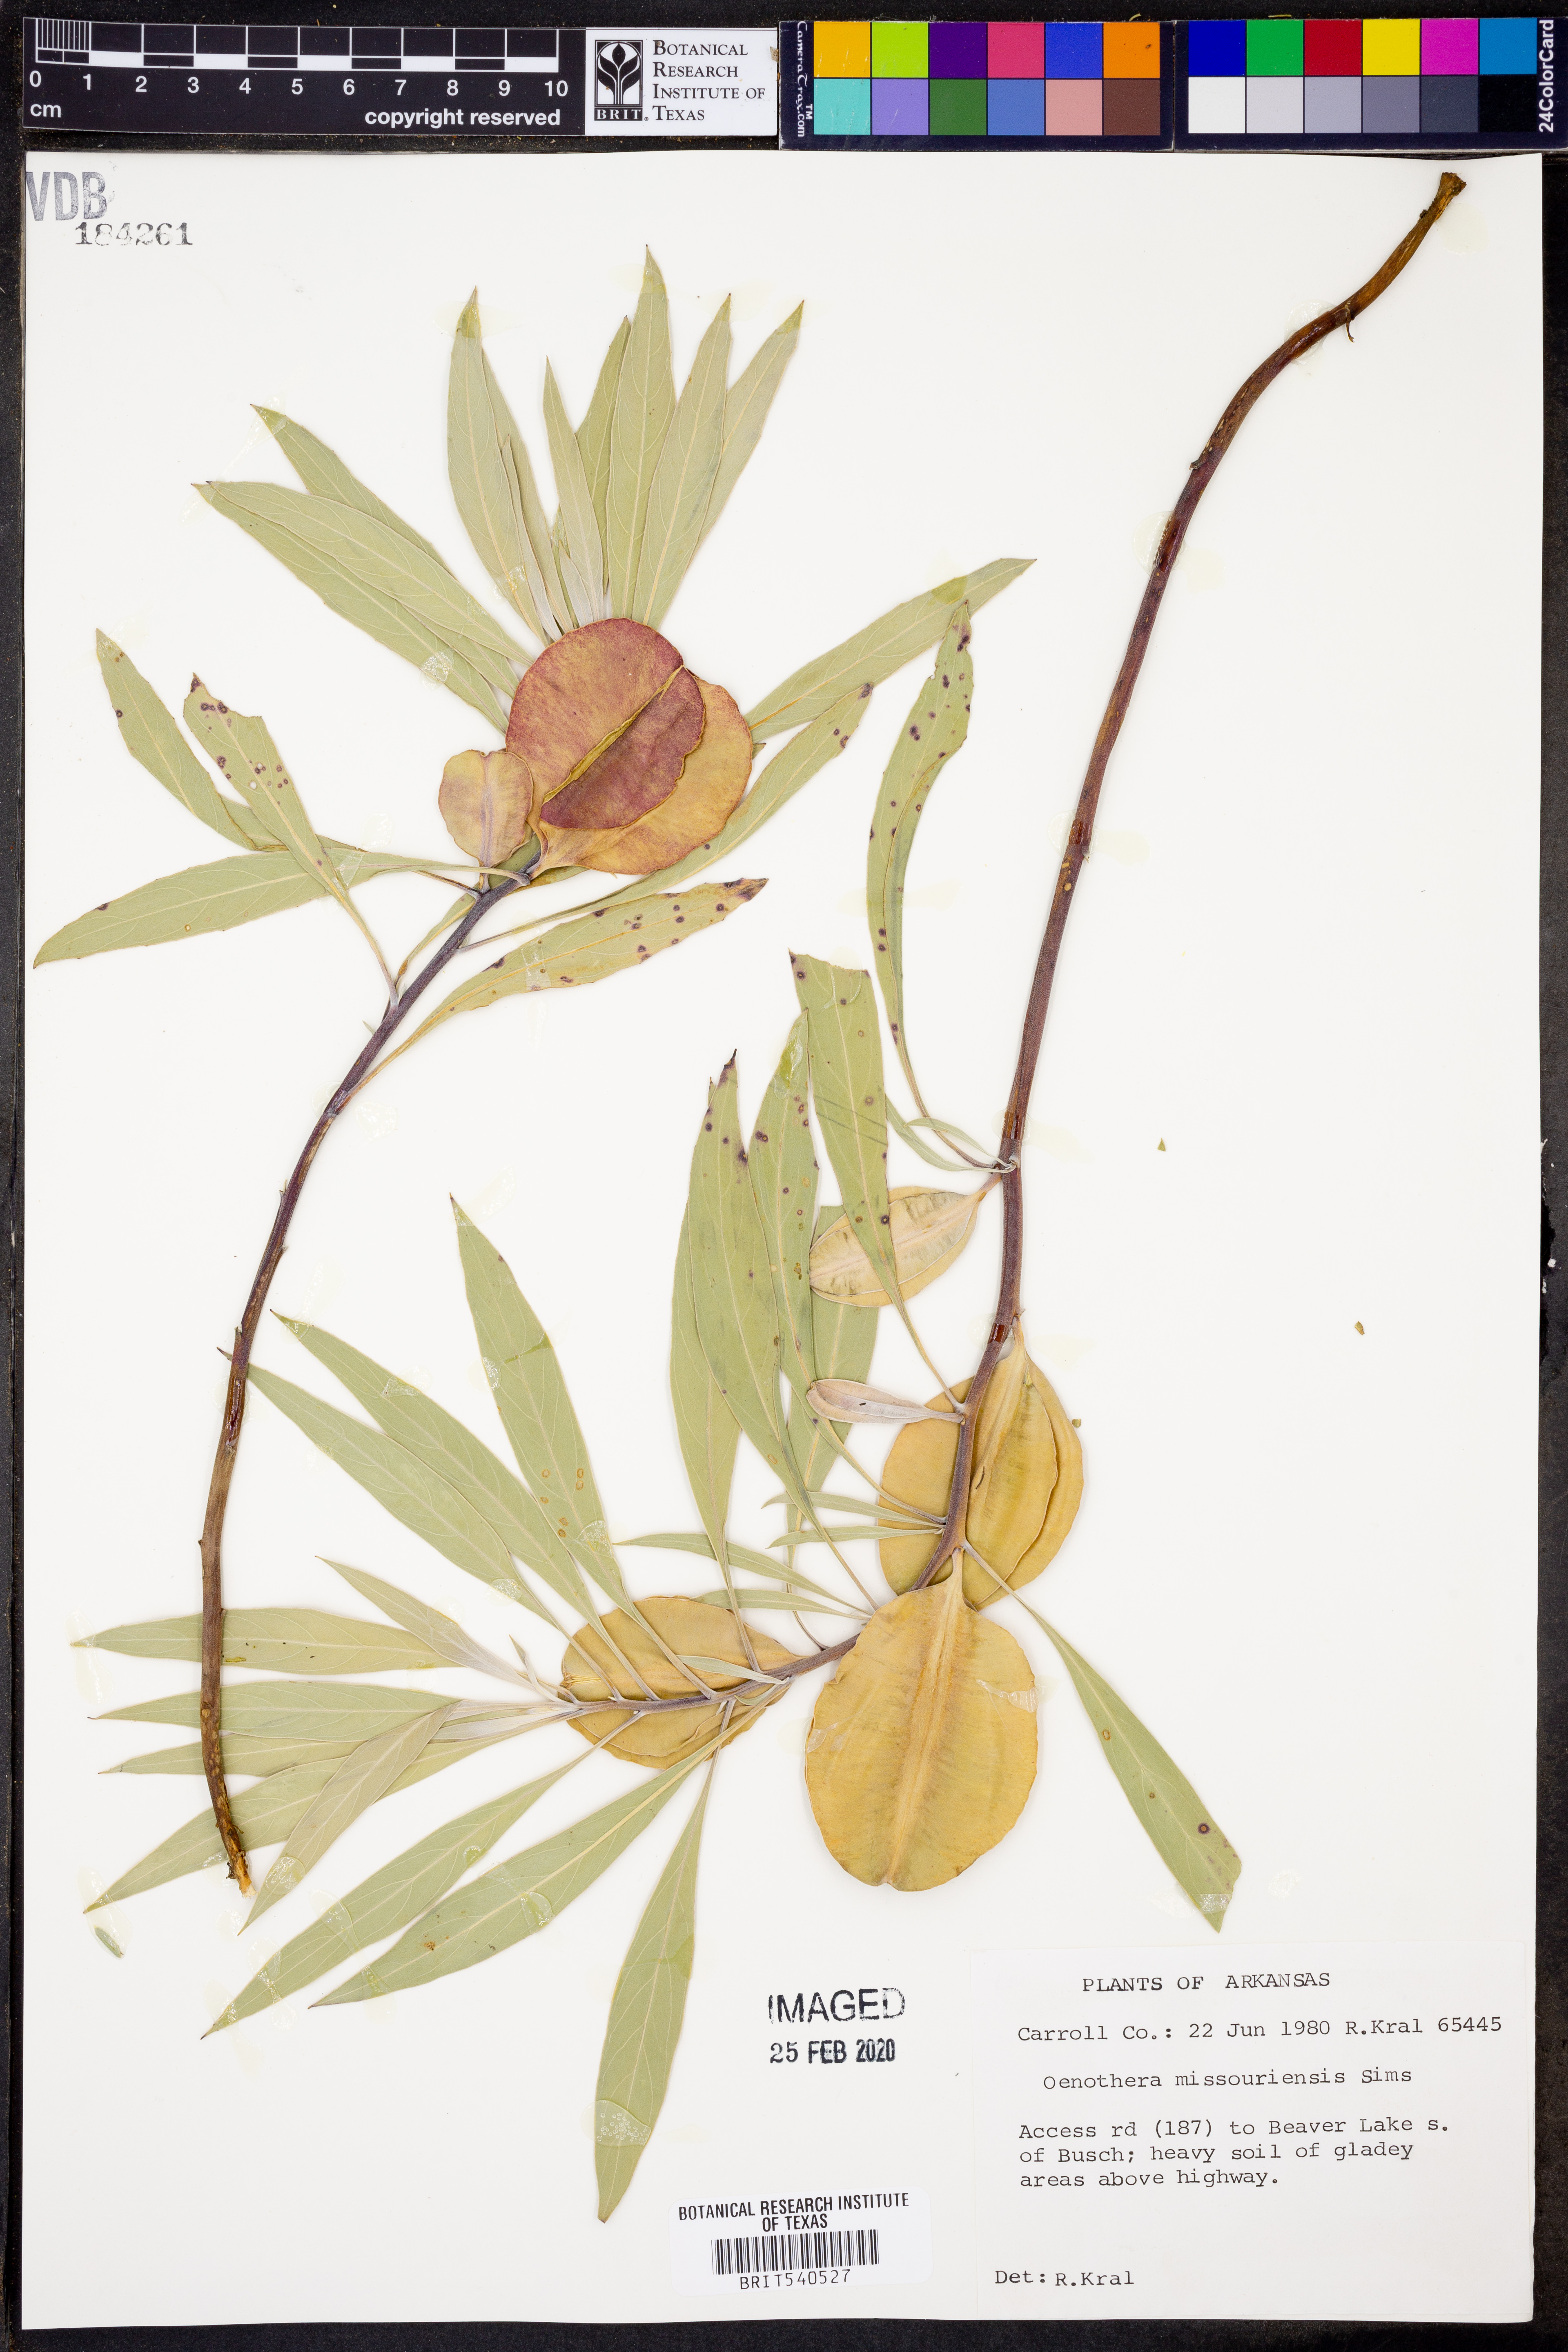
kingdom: Plantae
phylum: Tracheophyta
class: Magnoliopsida
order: Myrtales
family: Onagraceae
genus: Oenothera
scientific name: Oenothera macrocarpa
